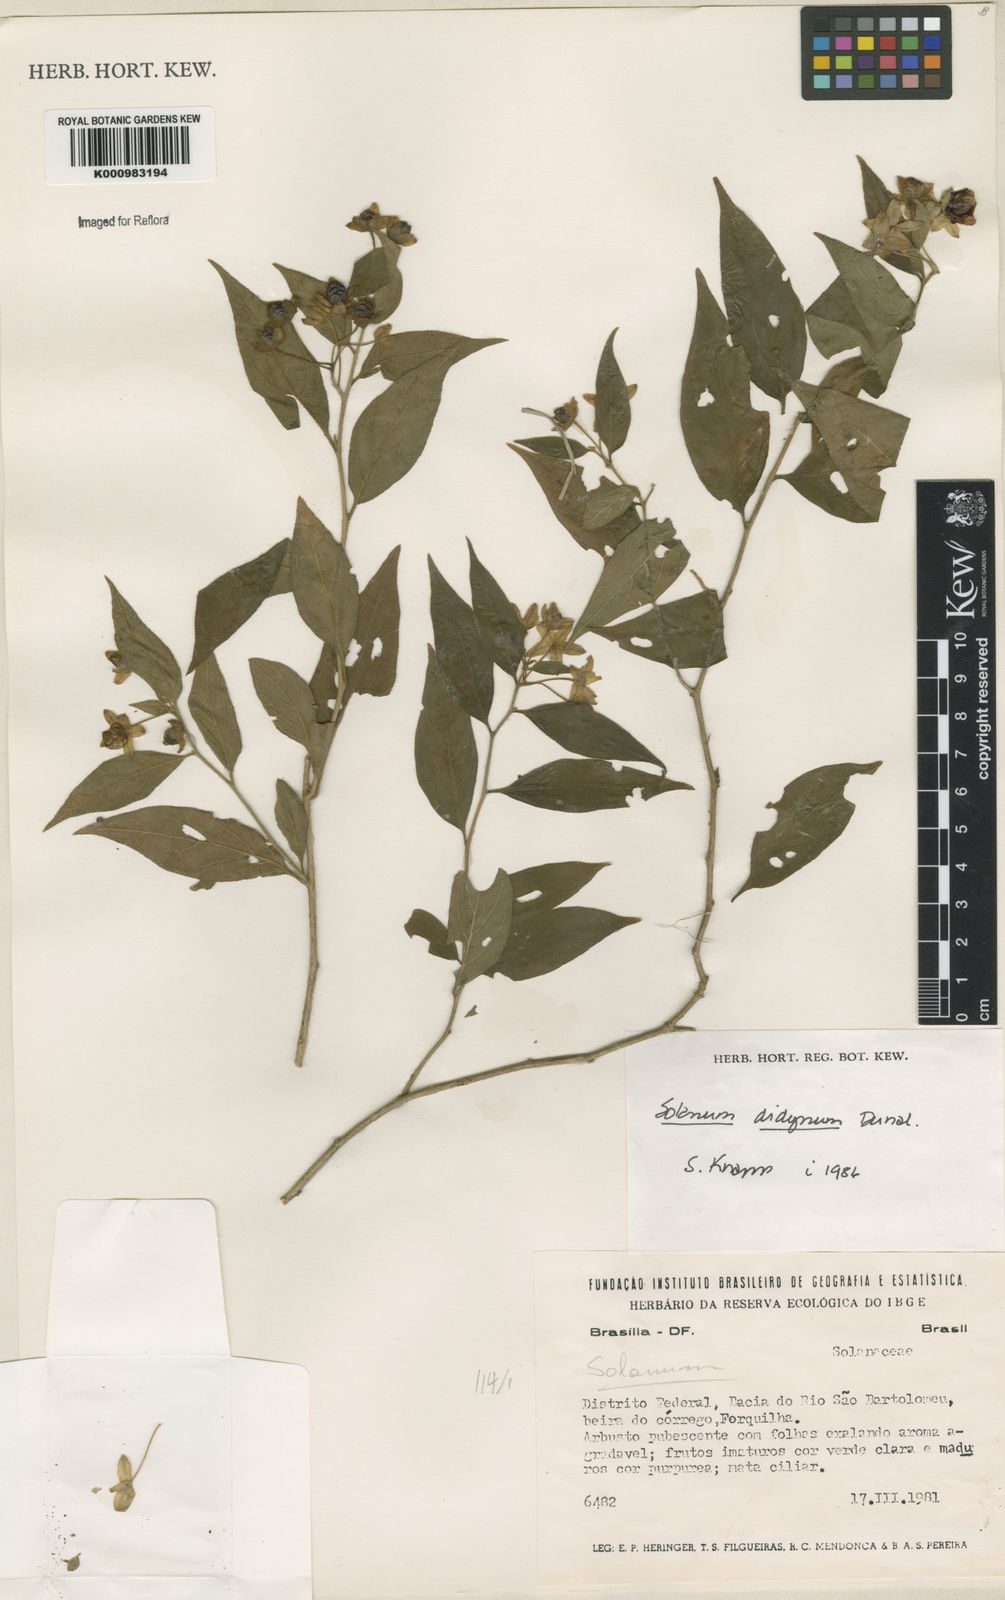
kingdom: Plantae
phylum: Tracheophyta
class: Magnoliopsida
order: Solanales
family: Solanaceae
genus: Solanum
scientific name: Solanum didymum
